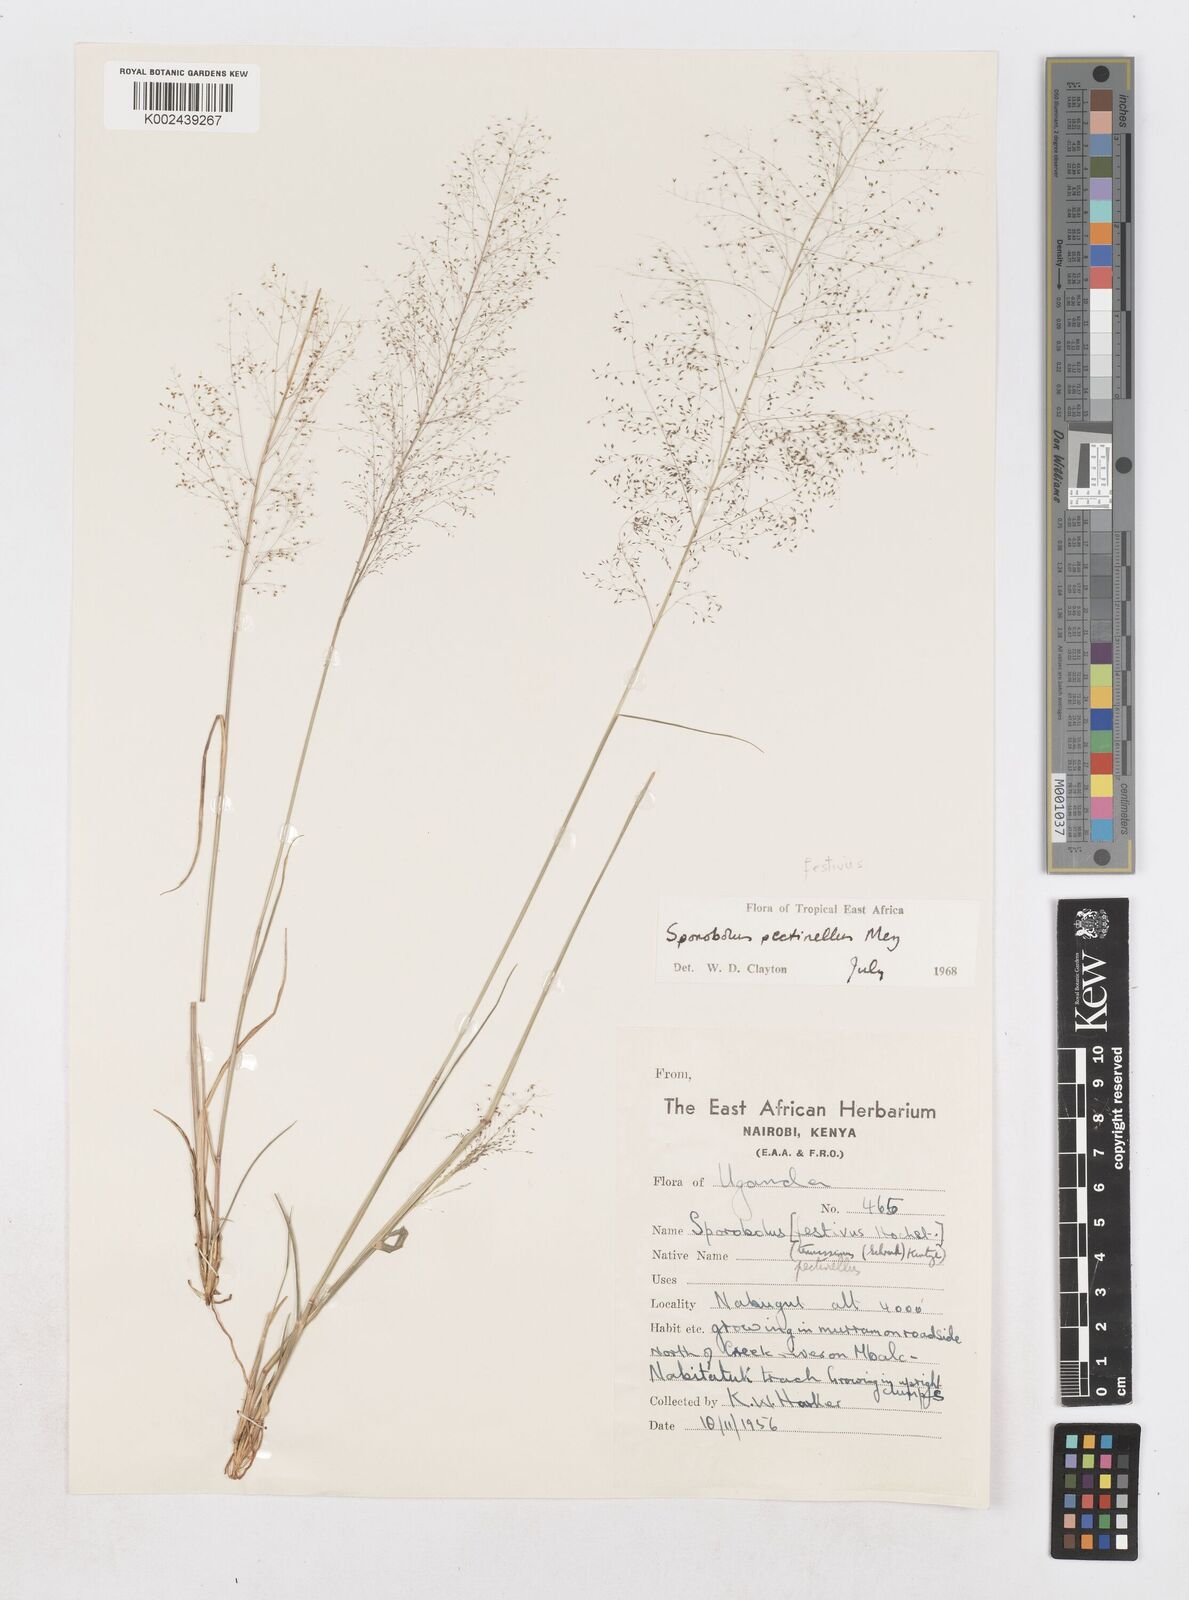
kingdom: Plantae
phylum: Tracheophyta
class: Liliopsida
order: Poales
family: Poaceae
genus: Sporobolus
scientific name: Sporobolus festivus
